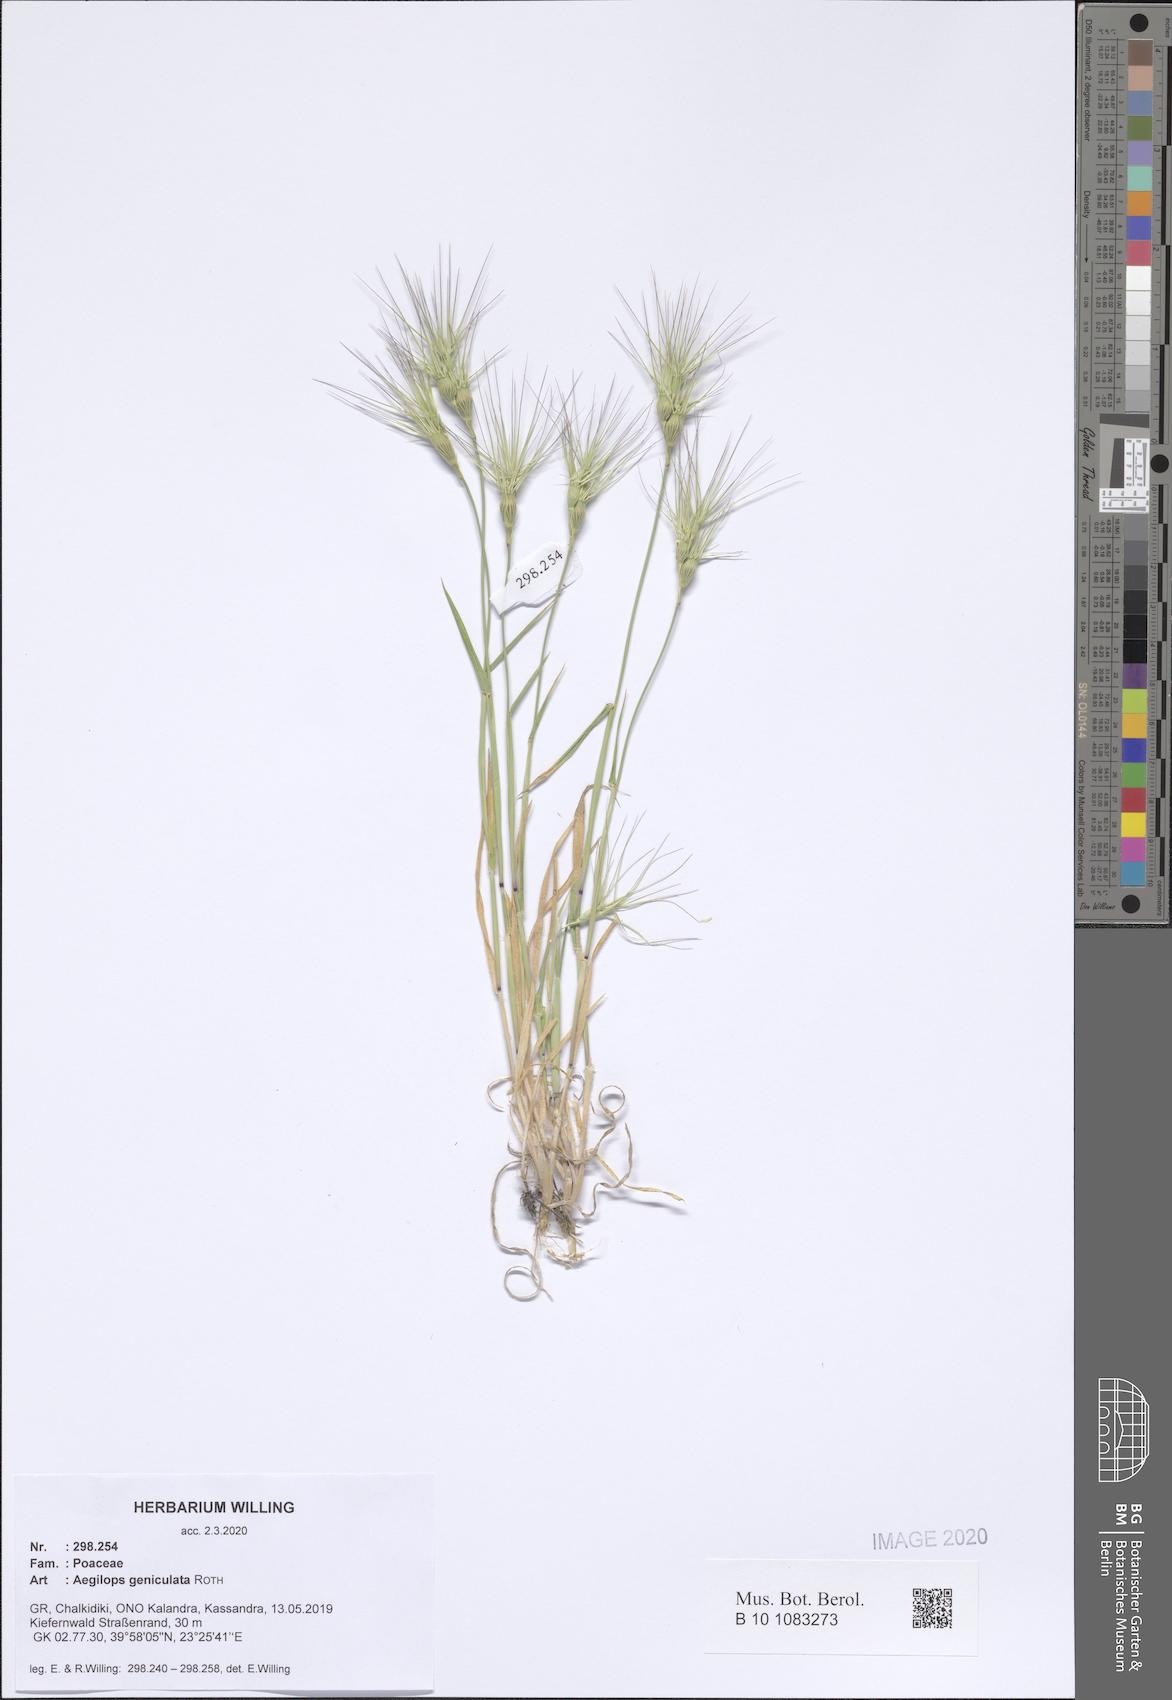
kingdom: Plantae
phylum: Tracheophyta
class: Liliopsida
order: Poales
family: Poaceae
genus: Aegilops
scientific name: Aegilops geniculata
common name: Ovate goat grass
